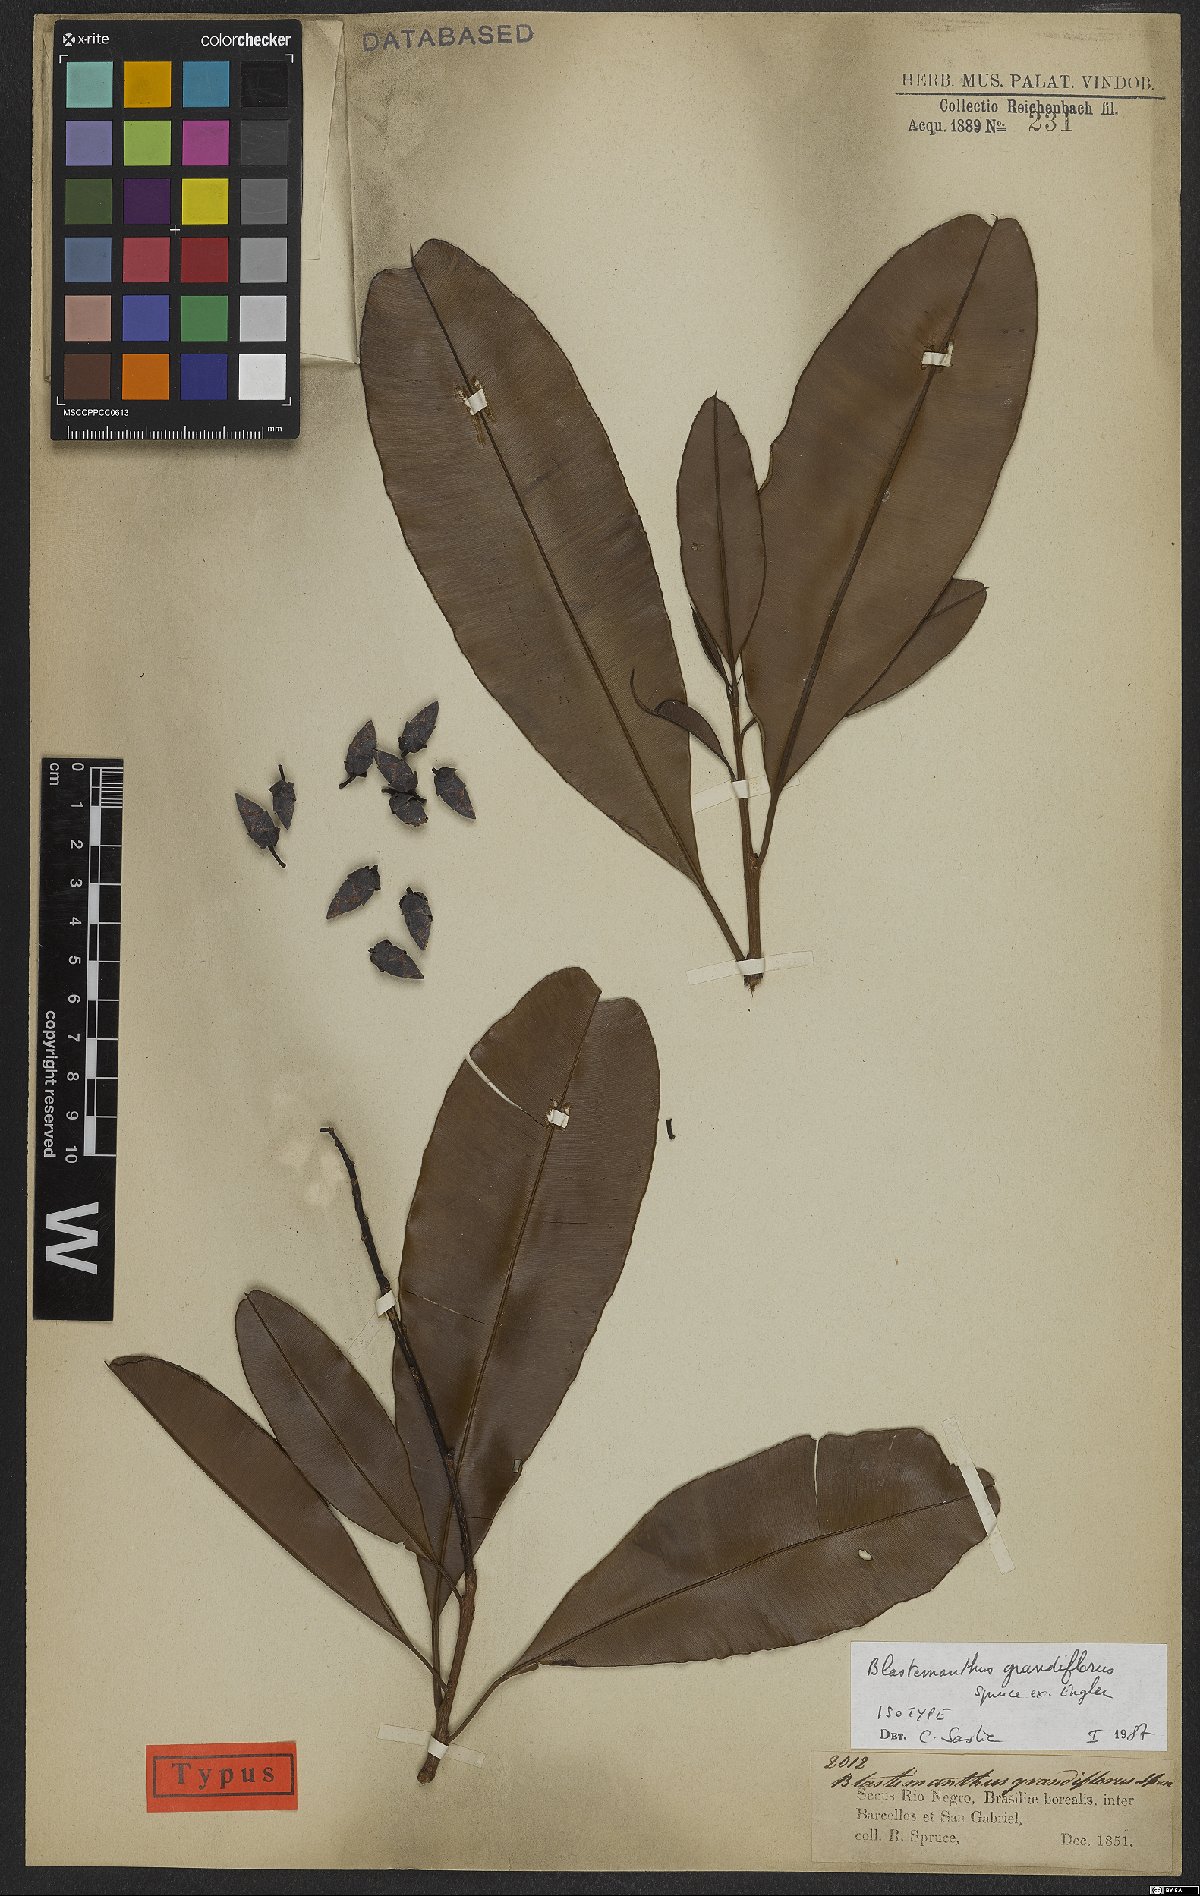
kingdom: Plantae
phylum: Tracheophyta
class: Magnoliopsida
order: Malpighiales
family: Ochnaceae
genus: Blastemanthus
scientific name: Blastemanthus grandiflorus
